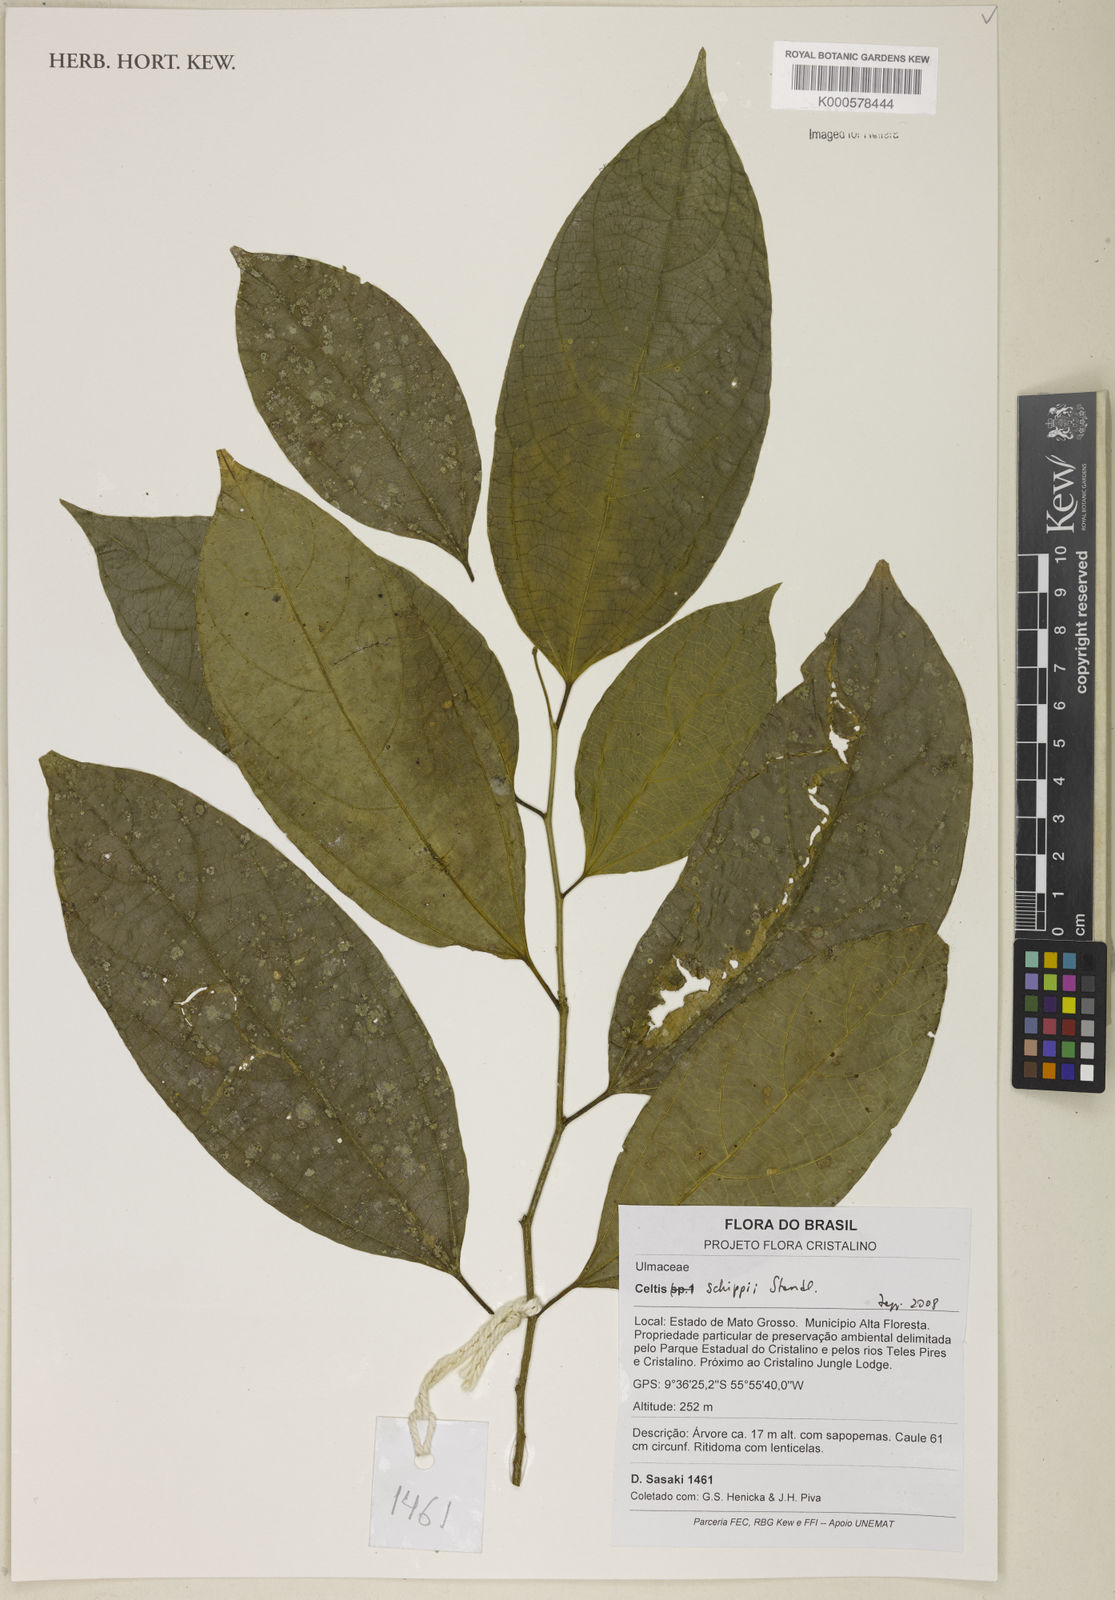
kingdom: Plantae
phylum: Tracheophyta
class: Magnoliopsida
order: Rosales
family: Cannabaceae
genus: Celtis
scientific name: Celtis schippii
